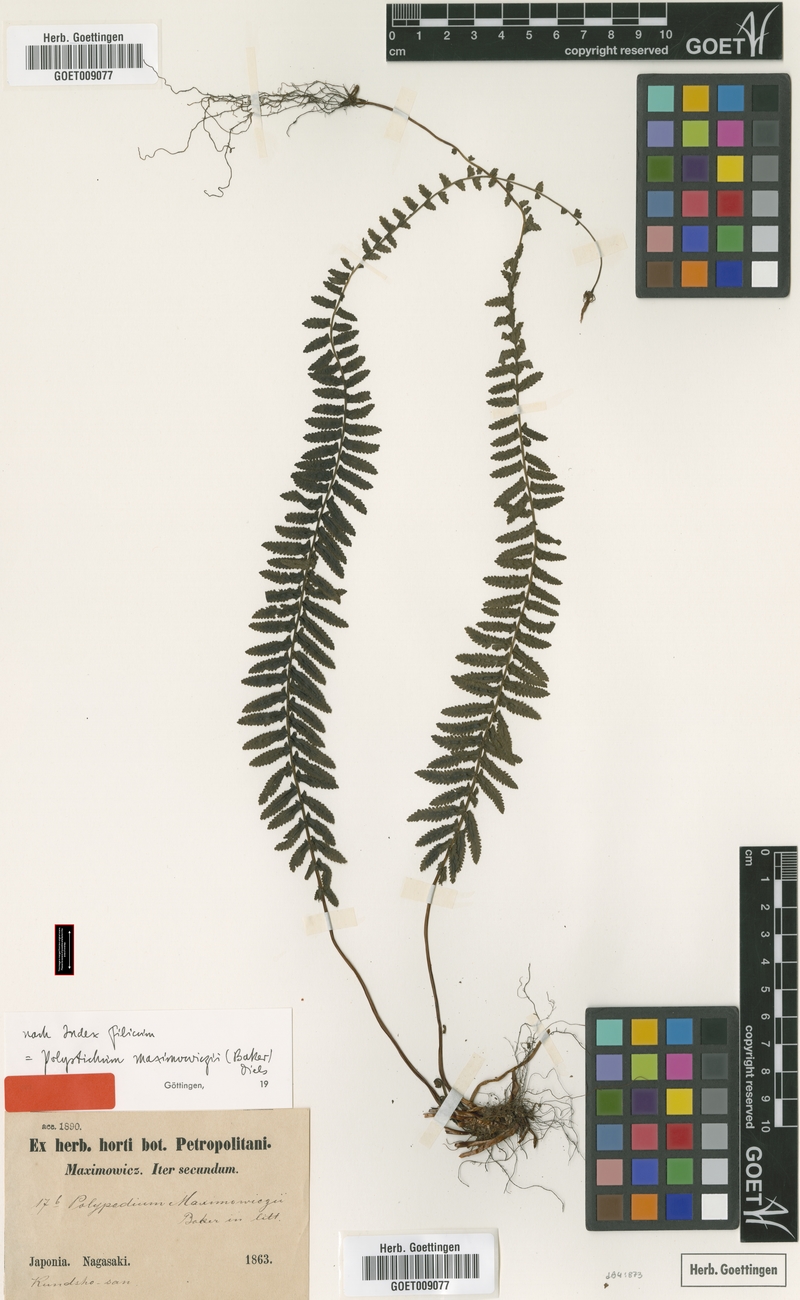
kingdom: Plantae
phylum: Tracheophyta
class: Polypodiopsida
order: Polypodiales
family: Dennstaedtiaceae
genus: Monachosorum
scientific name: Monachosorum maximowiczii
